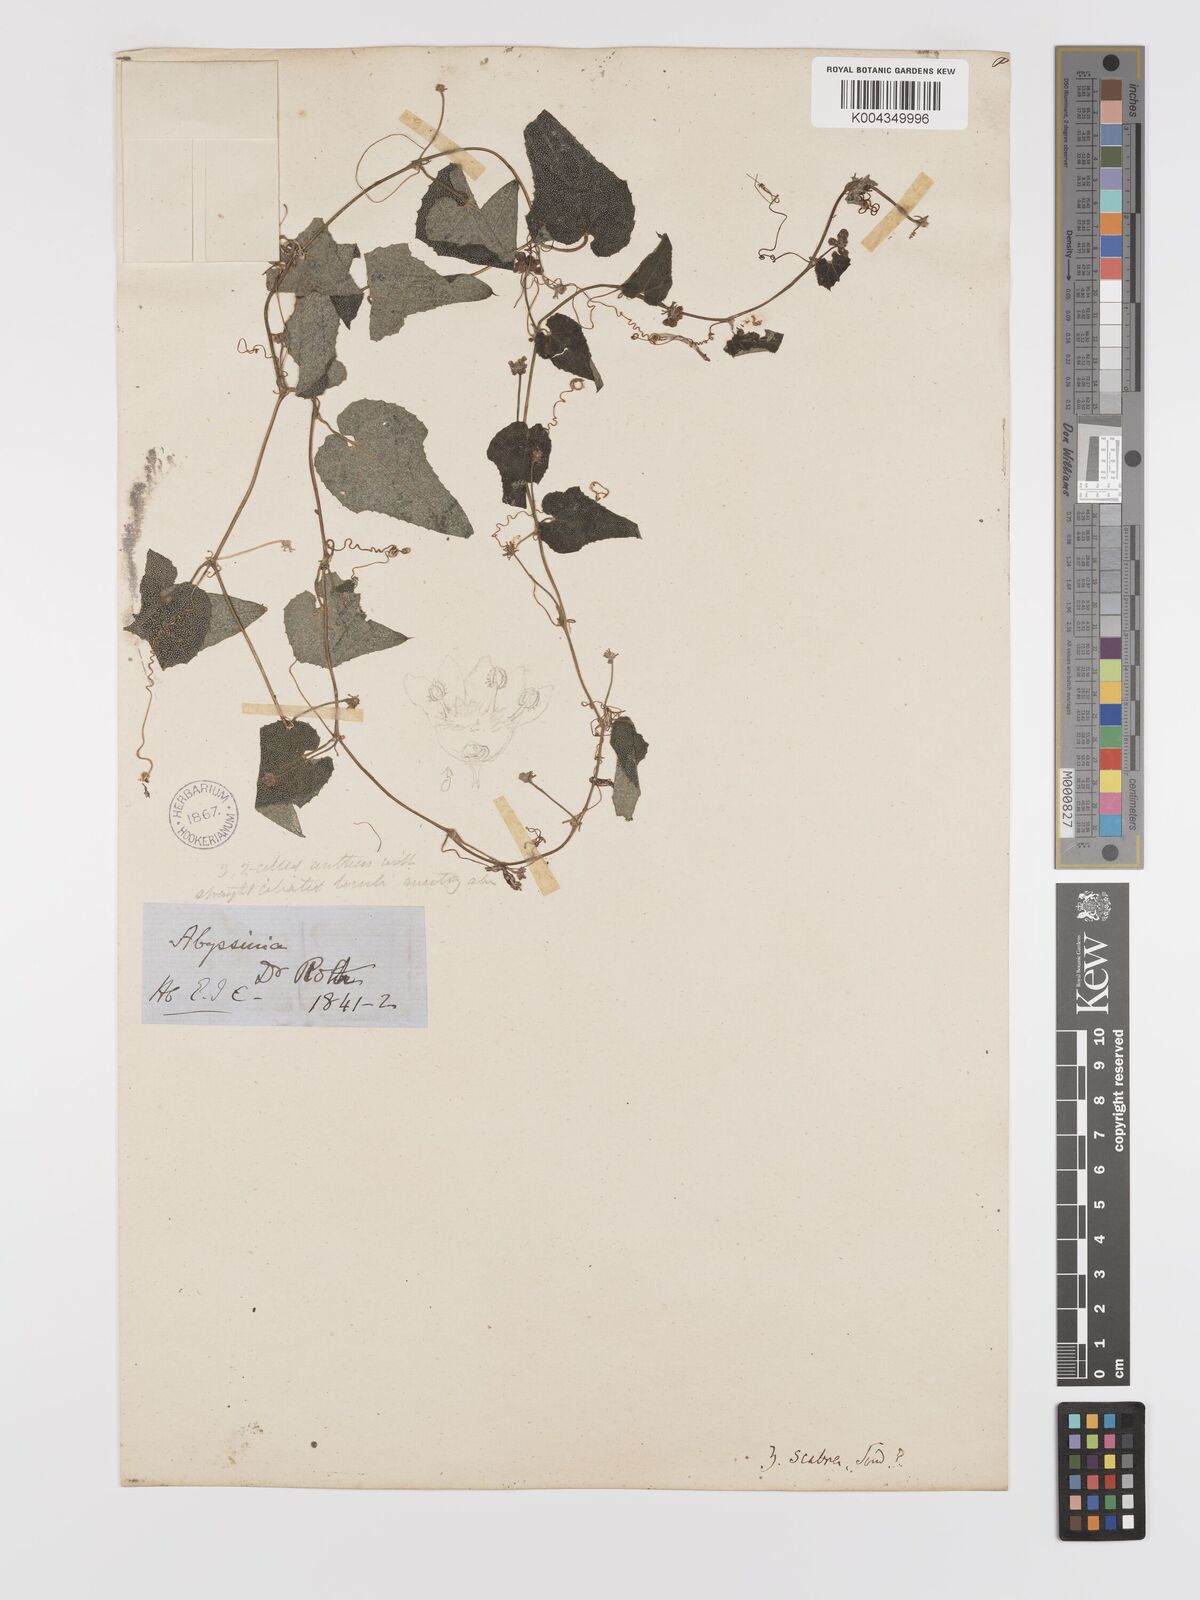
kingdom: Plantae
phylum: Tracheophyta
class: Magnoliopsida
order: Cucurbitales
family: Cucurbitaceae
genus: Zehneria
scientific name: Zehneria scabra
